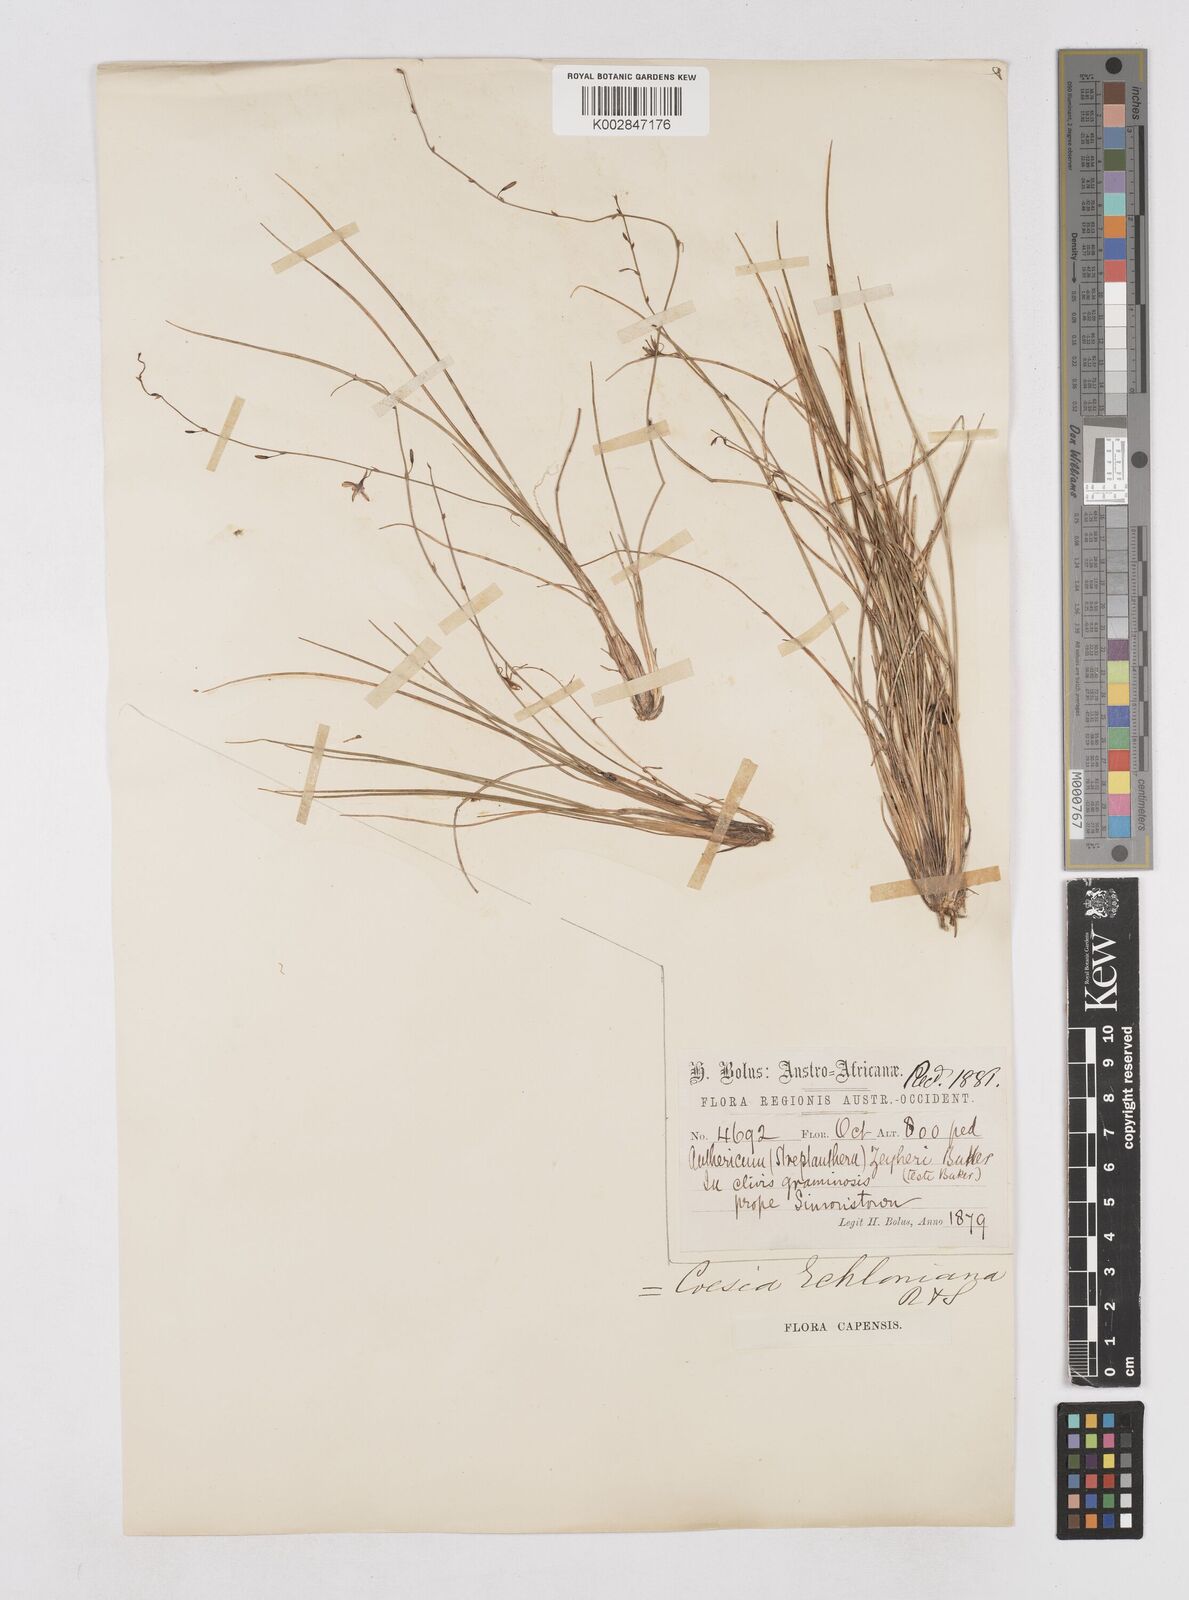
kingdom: Plantae
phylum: Tracheophyta
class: Liliopsida
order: Asparagales
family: Asphodelaceae
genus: Caesia
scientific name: Caesia contorta
